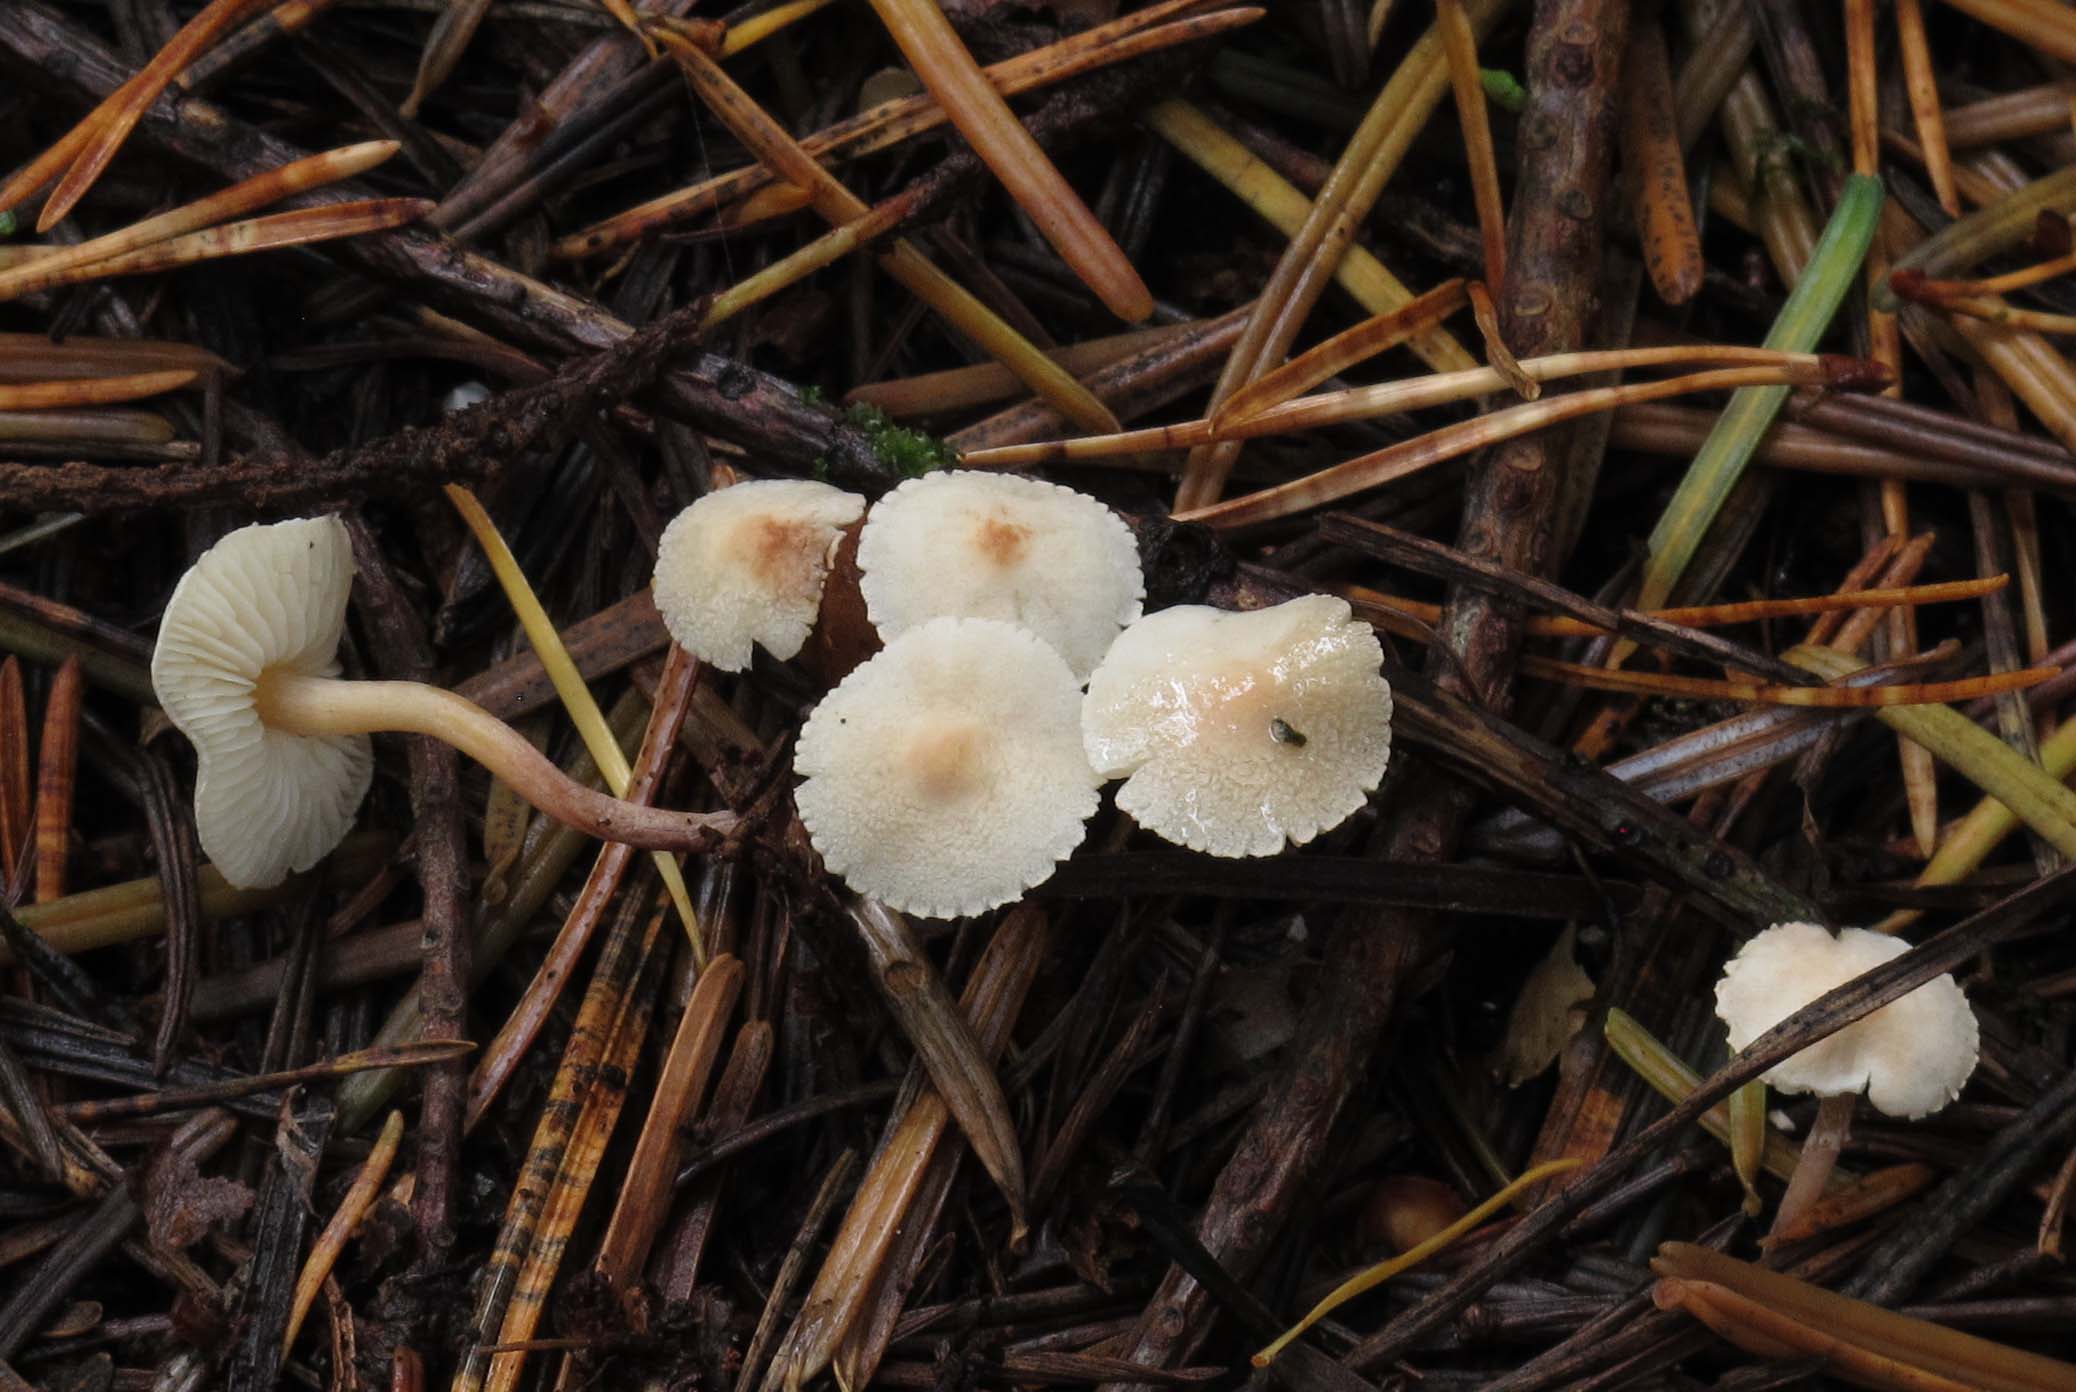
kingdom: Fungi
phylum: Basidiomycota
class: Agaricomycetes
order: Agaricales
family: Agaricaceae
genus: Cystolepiota
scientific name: Cystolepiota seminuda
